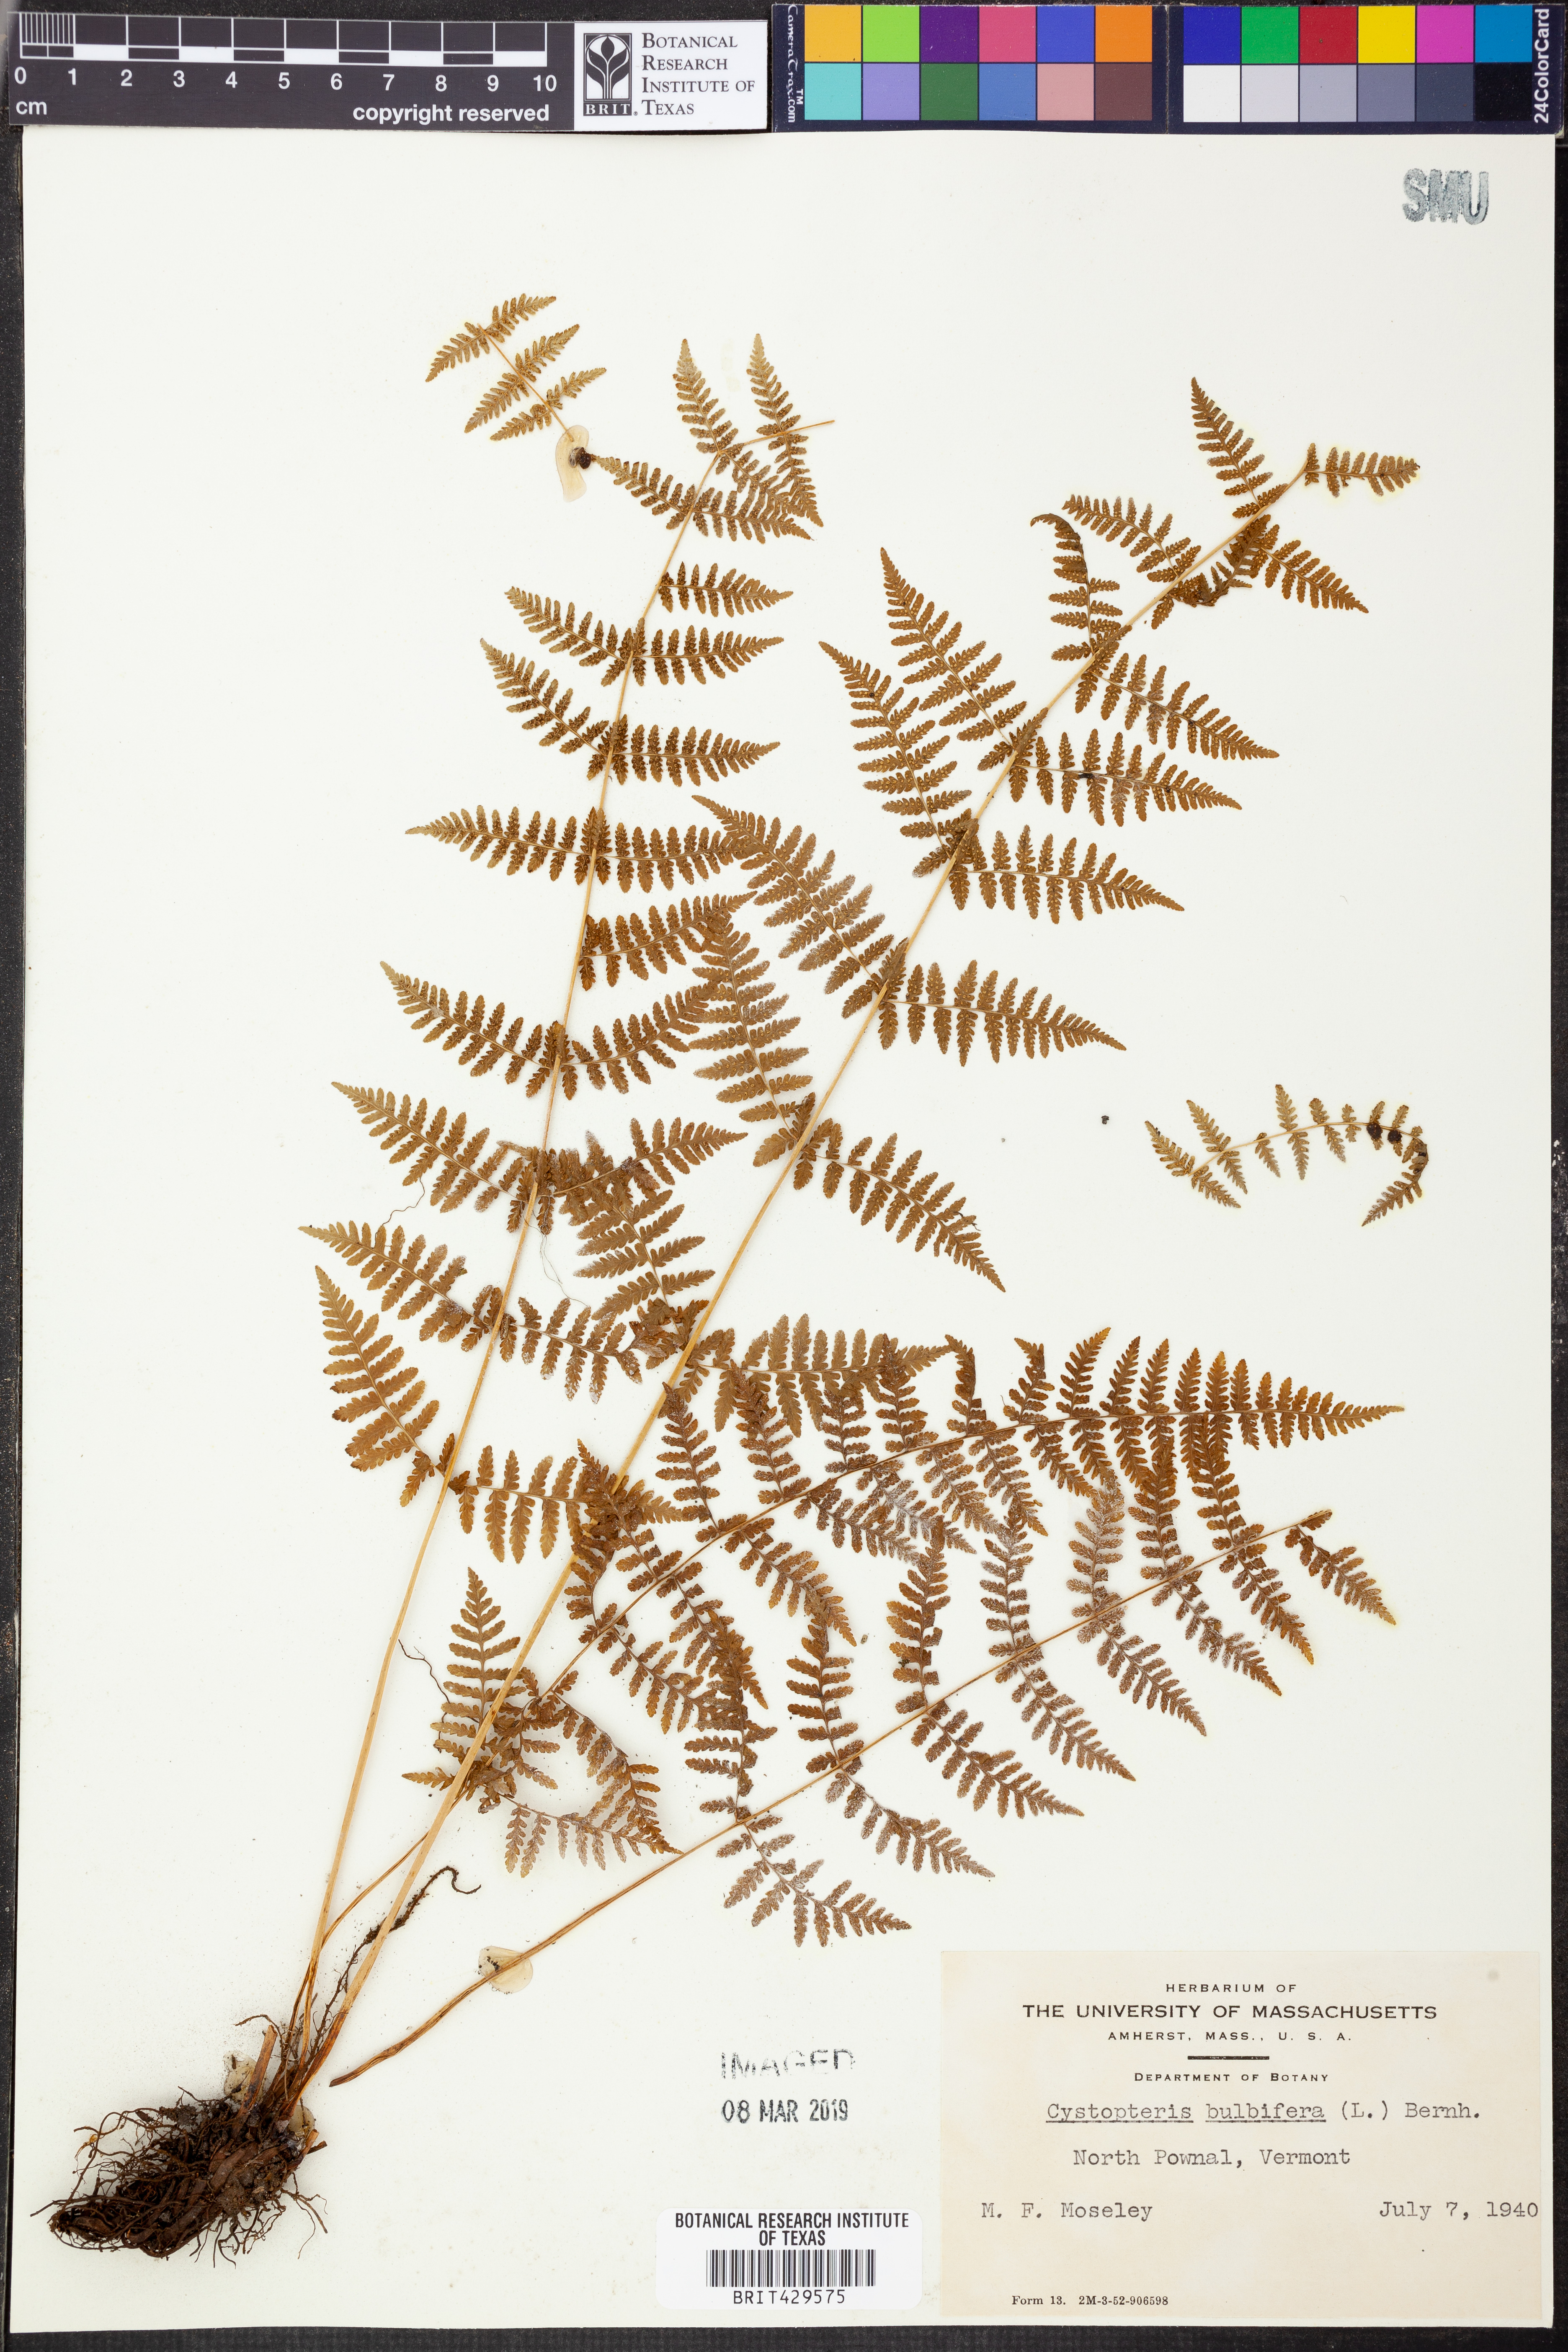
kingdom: Plantae
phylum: Tracheophyta
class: Polypodiopsida
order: Polypodiales
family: Cystopteridaceae
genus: Cystopteris
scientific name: Cystopteris bulbifera
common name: Bulblet bladder fern
